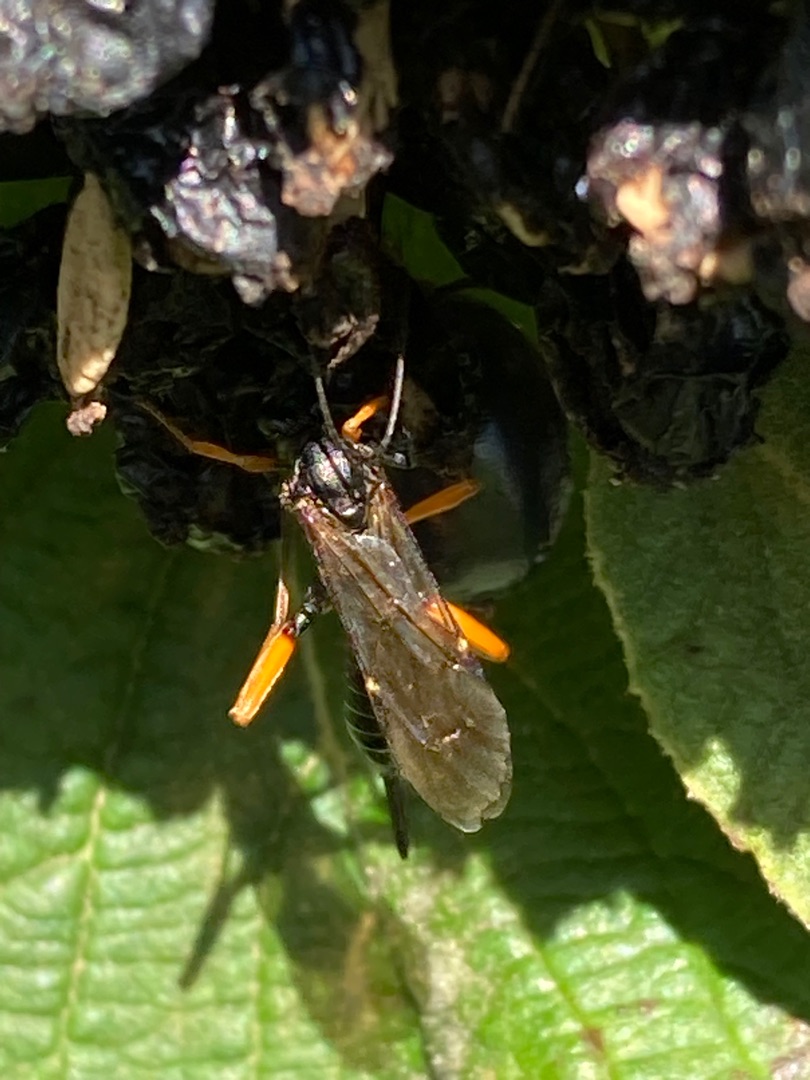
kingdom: Animalia
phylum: Arthropoda
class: Insecta
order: Hymenoptera
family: Ichneumonidae
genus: Pimpla
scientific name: Pimpla rufipes
